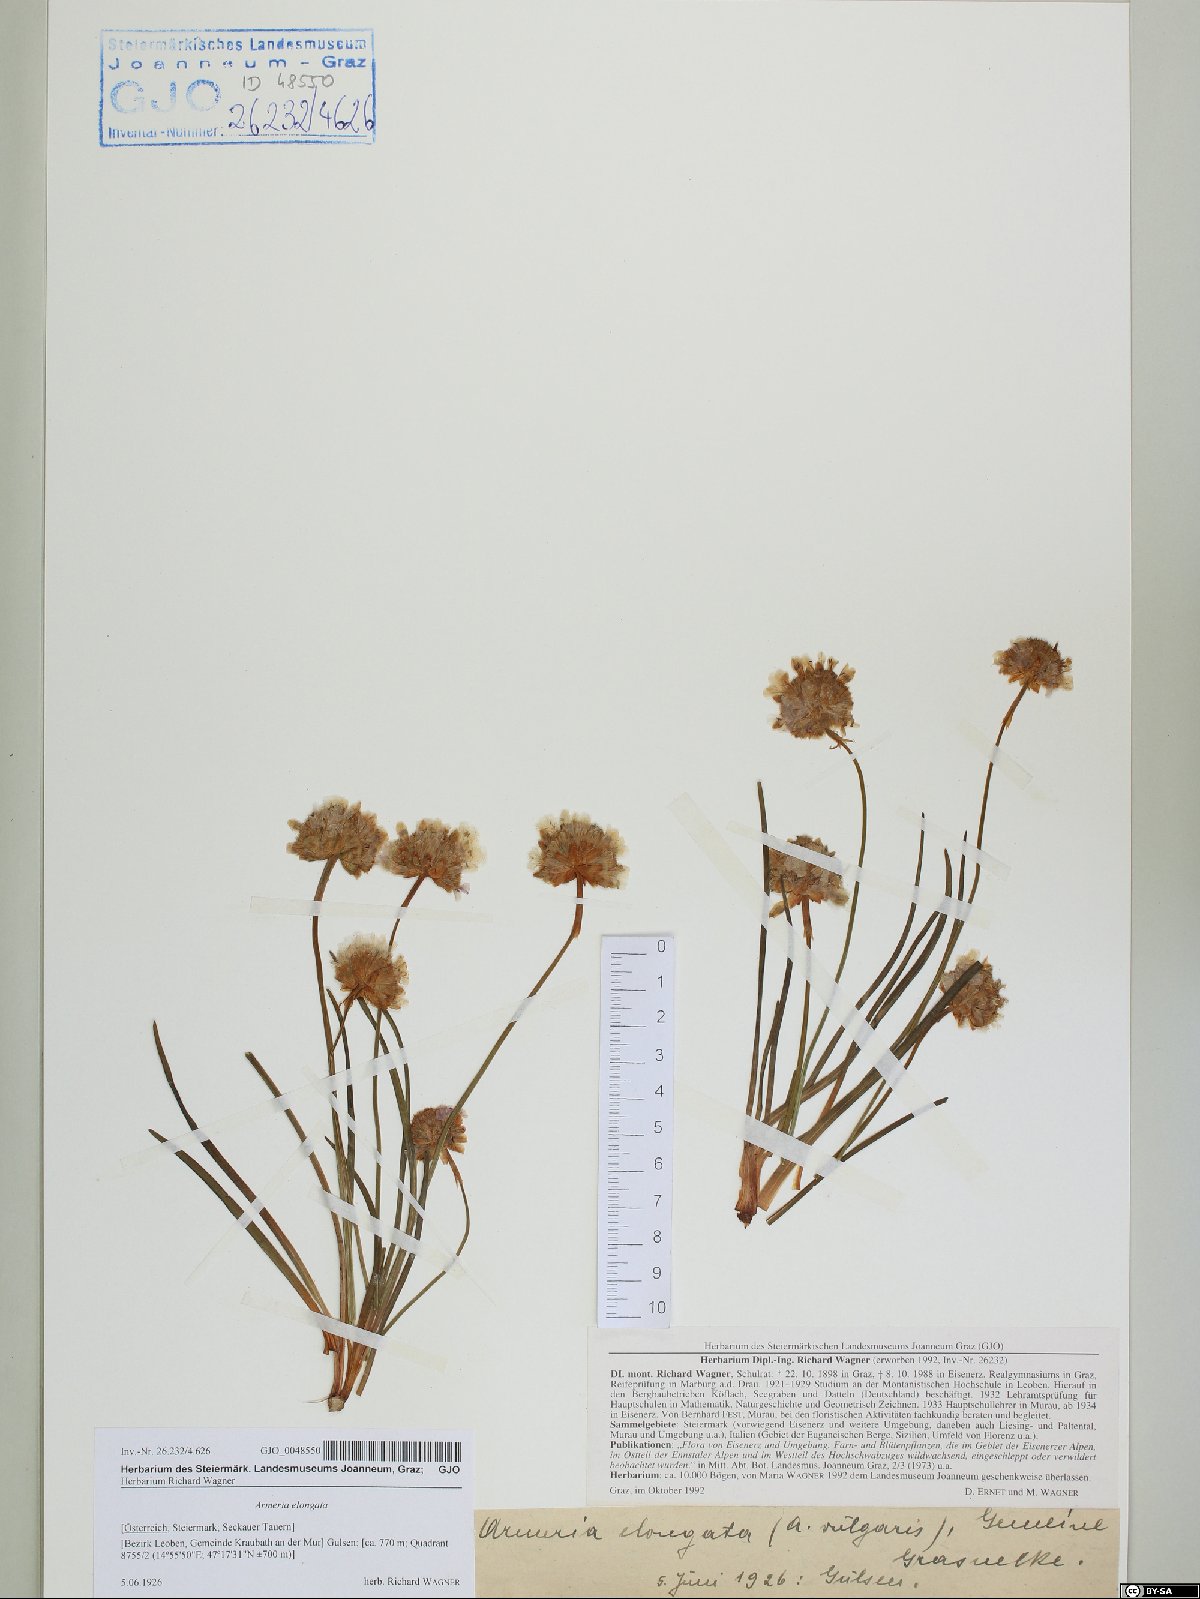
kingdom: Plantae
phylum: Tracheophyta
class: Magnoliopsida
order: Caryophyllales
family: Plumbaginaceae
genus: Armeria
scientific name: Armeria maritima
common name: Thrift
